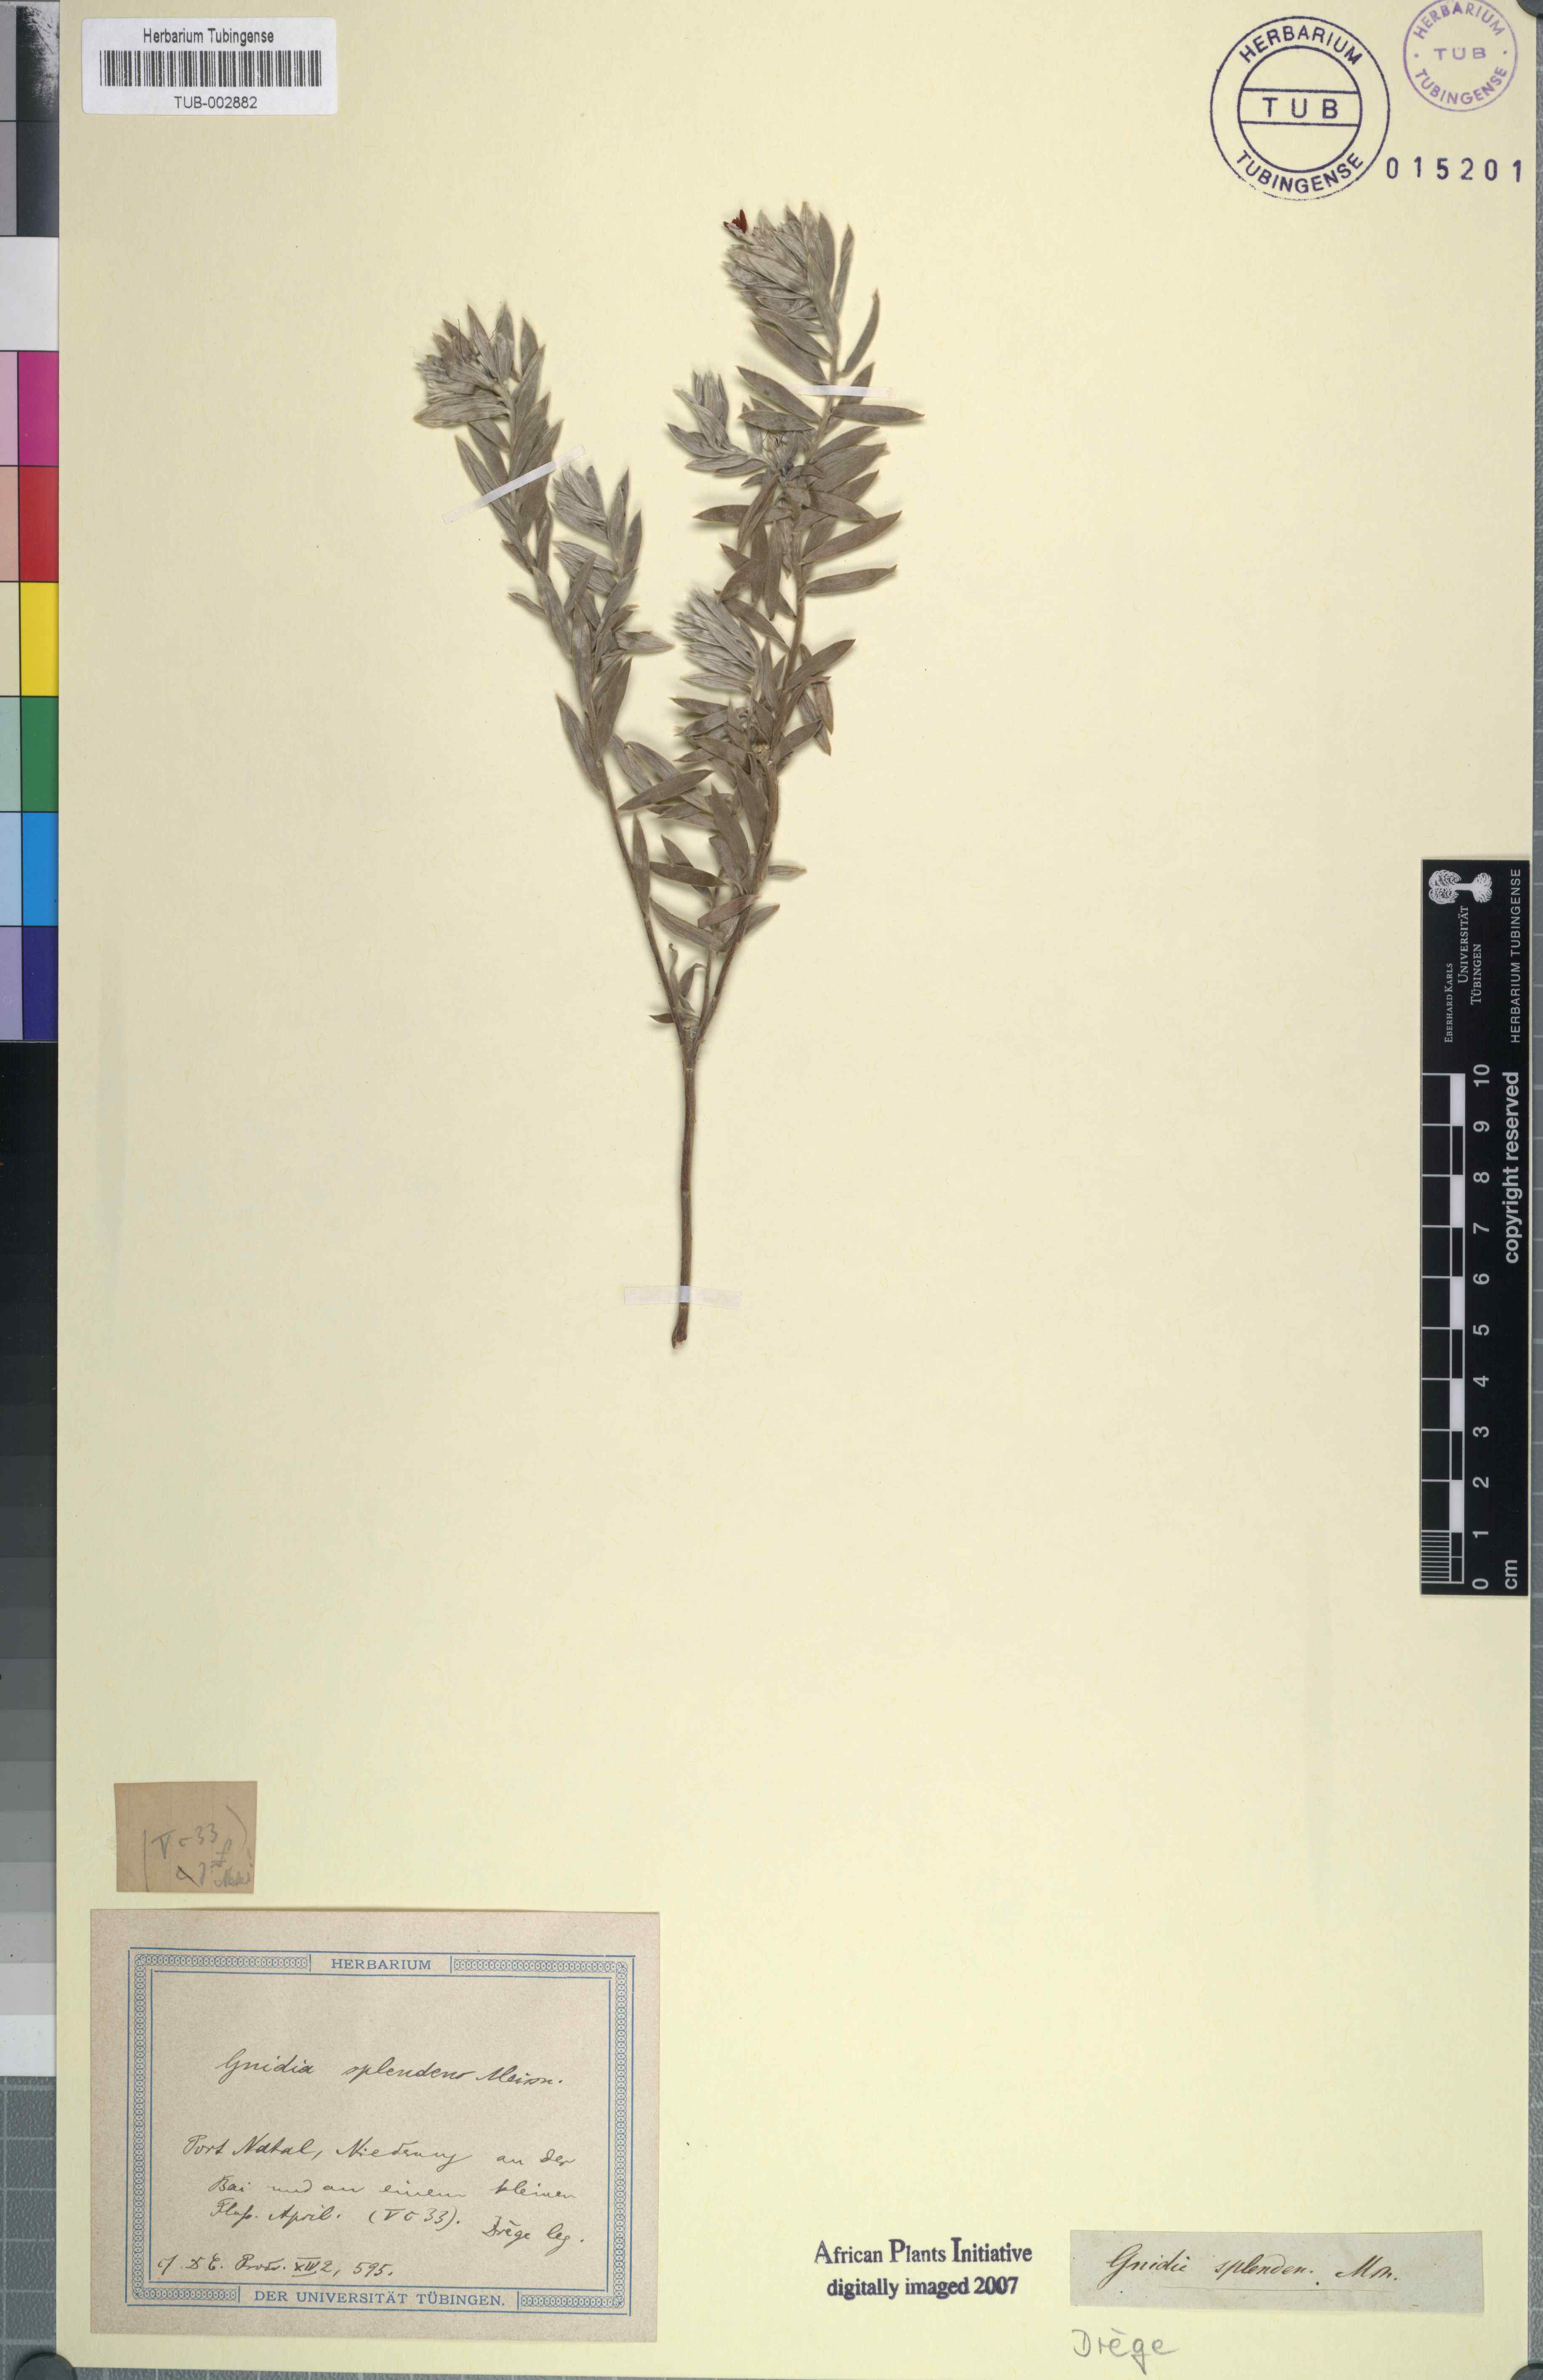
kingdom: Plantae
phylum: Tracheophyta
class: Magnoliopsida
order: Malvales
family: Thymelaeaceae
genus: Gnidia
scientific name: Gnidia splendens
